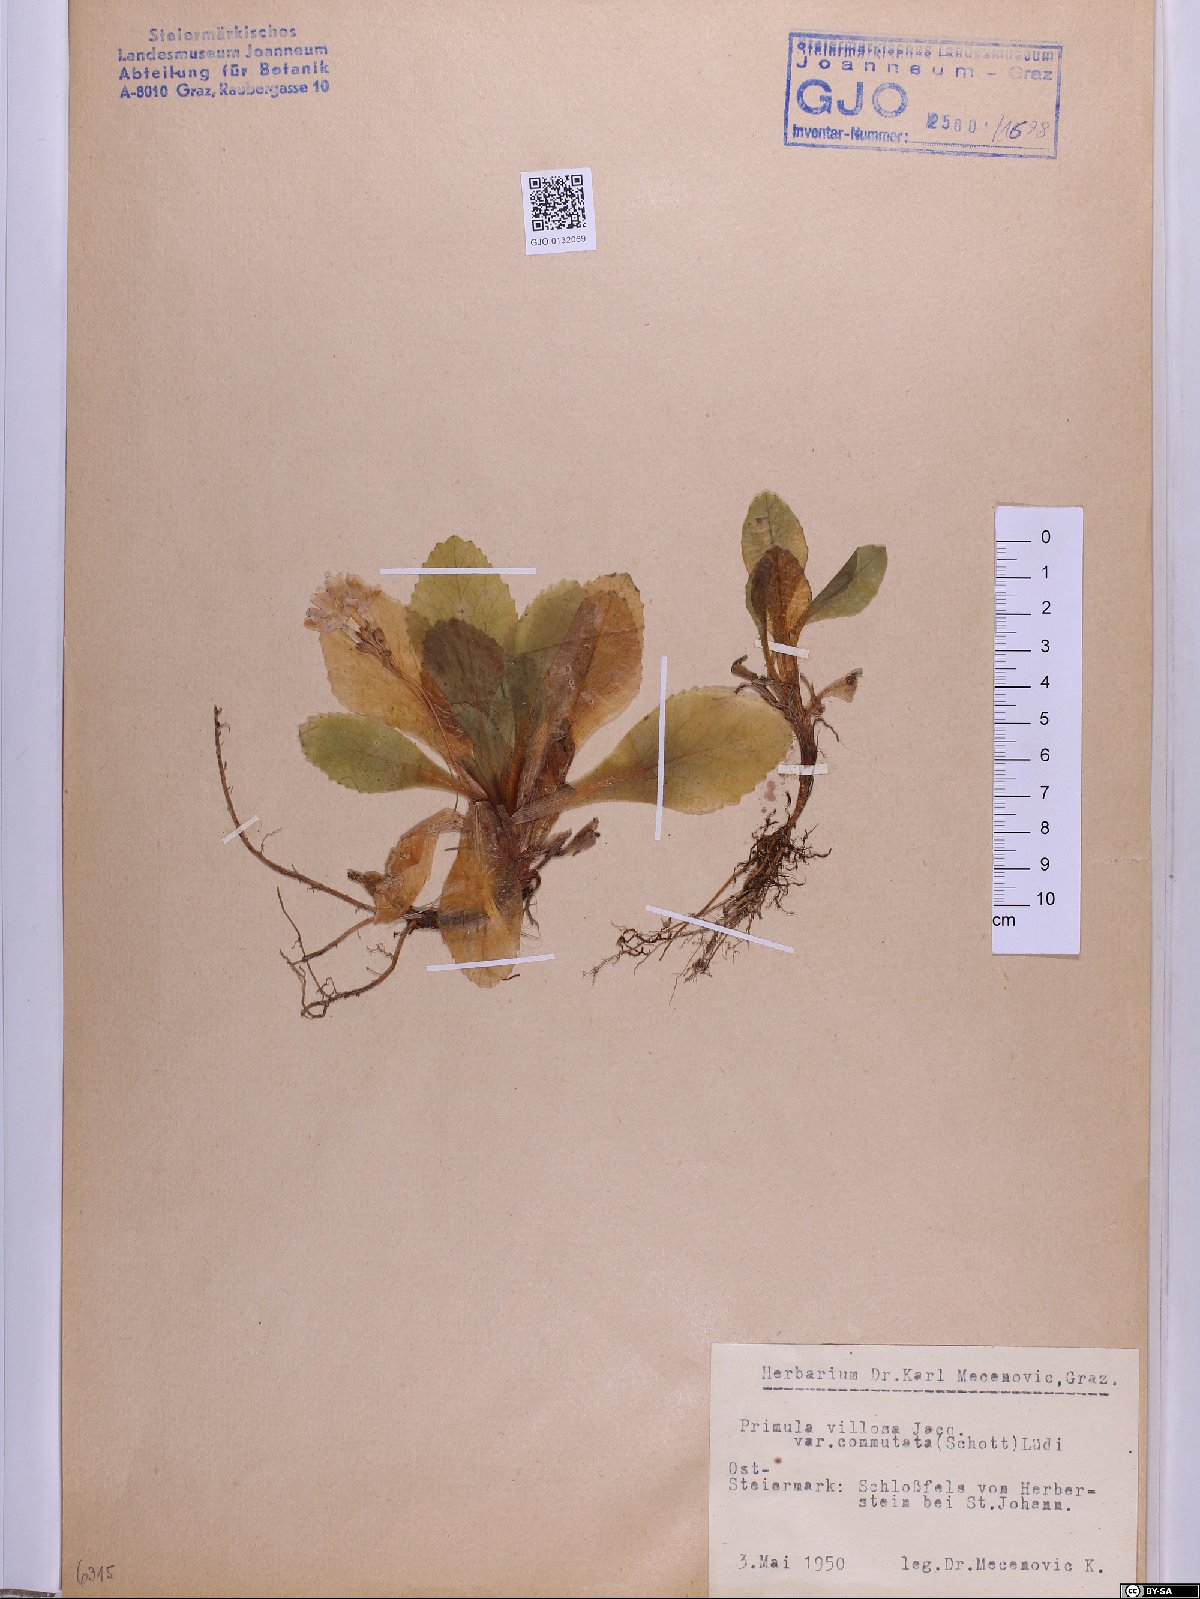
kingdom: Plantae
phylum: Tracheophyta
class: Magnoliopsida
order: Ericales
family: Primulaceae
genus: Primula
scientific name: Primula villosa
